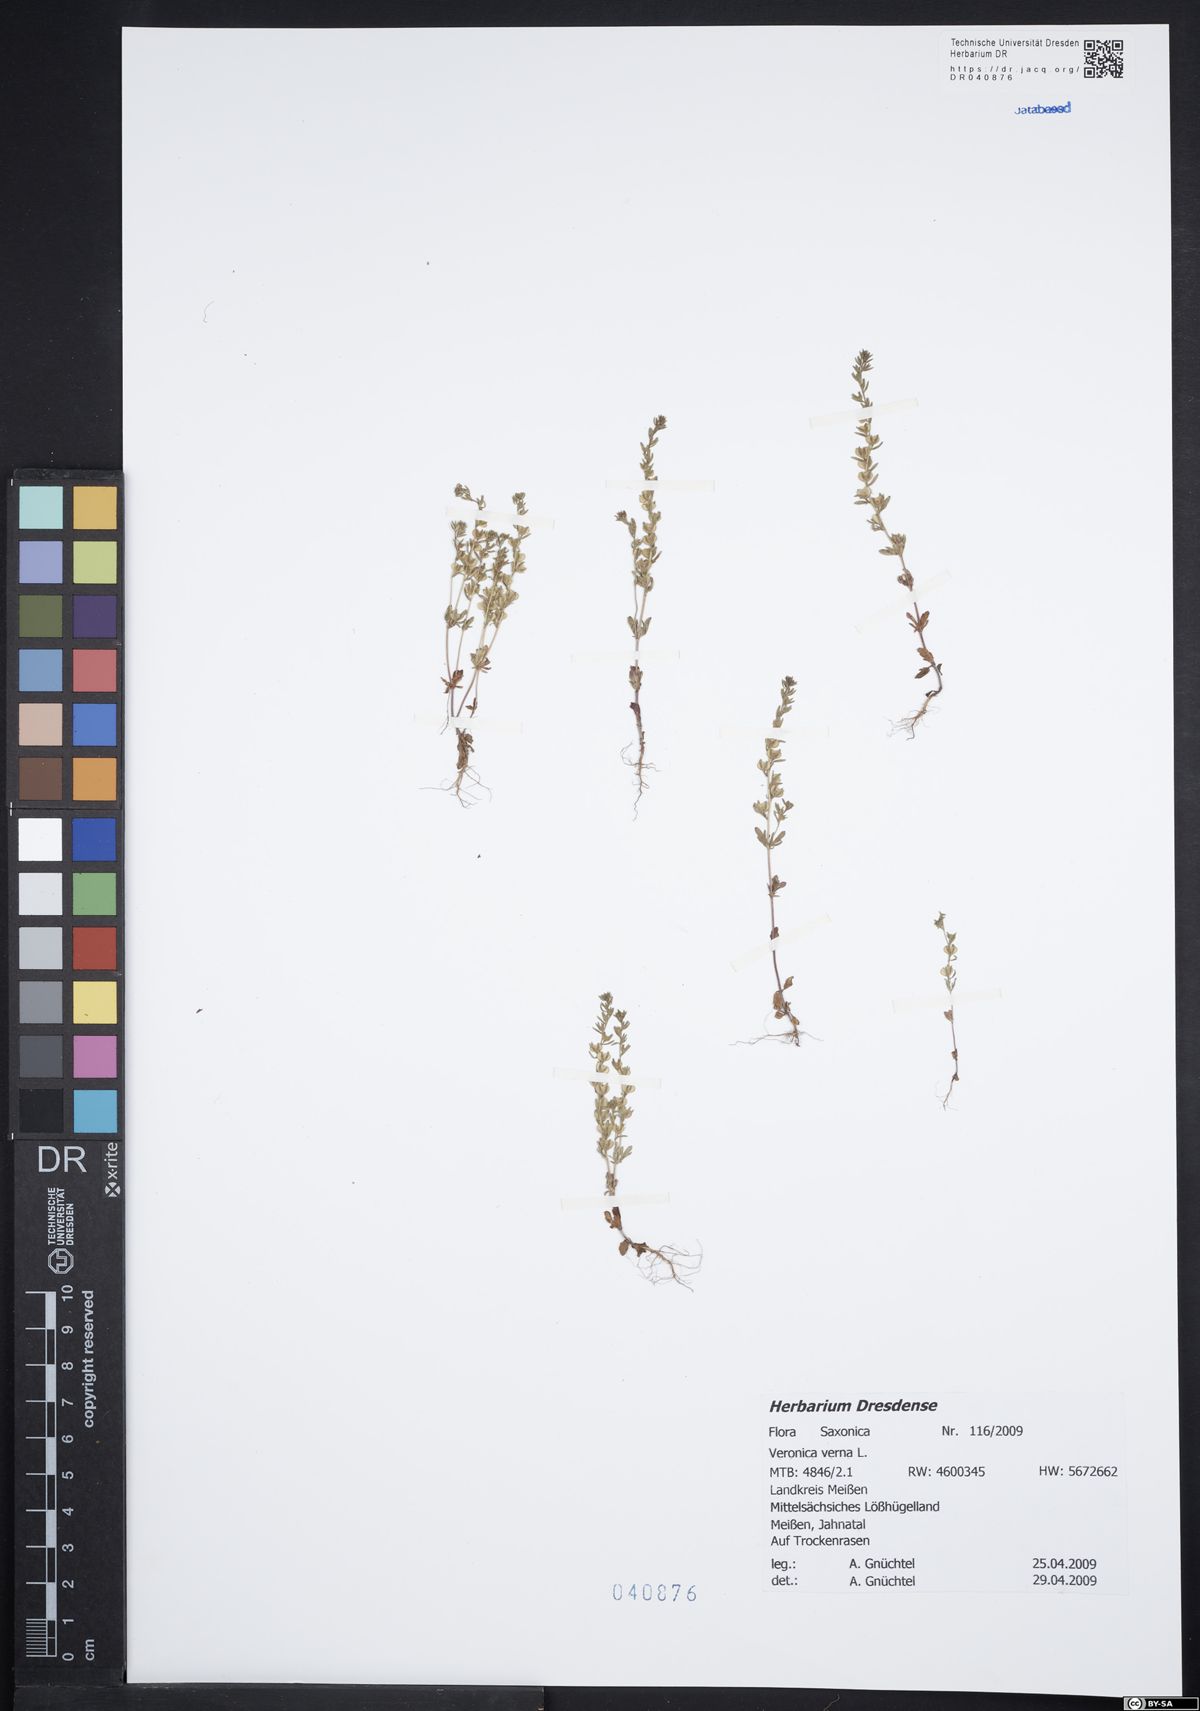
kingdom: Plantae
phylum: Tracheophyta
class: Magnoliopsida
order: Lamiales
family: Plantaginaceae
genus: Veronica
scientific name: Veronica verna
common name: Spring speedwell
